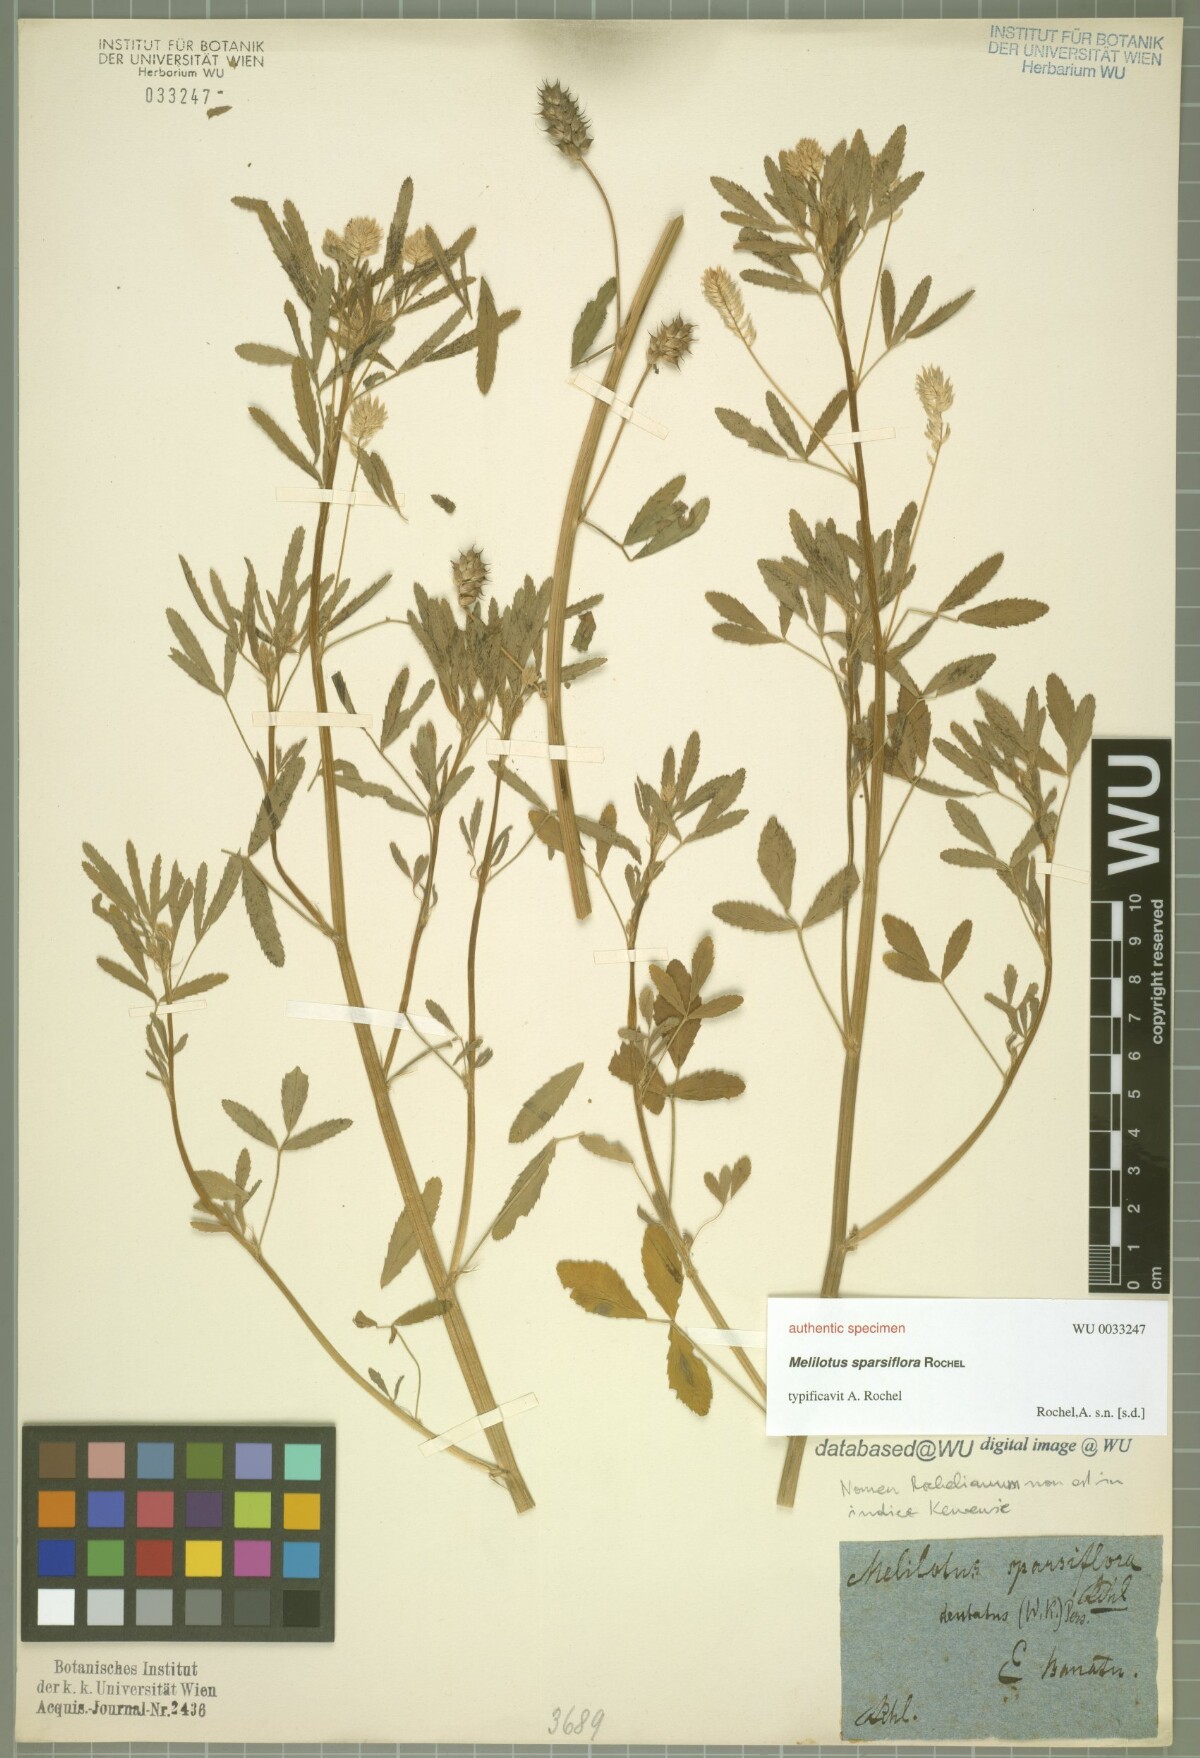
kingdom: Plantae
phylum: Tracheophyta
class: Magnoliopsida
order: Fabales
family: Fabaceae
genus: Melilotus
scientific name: Melilotus
